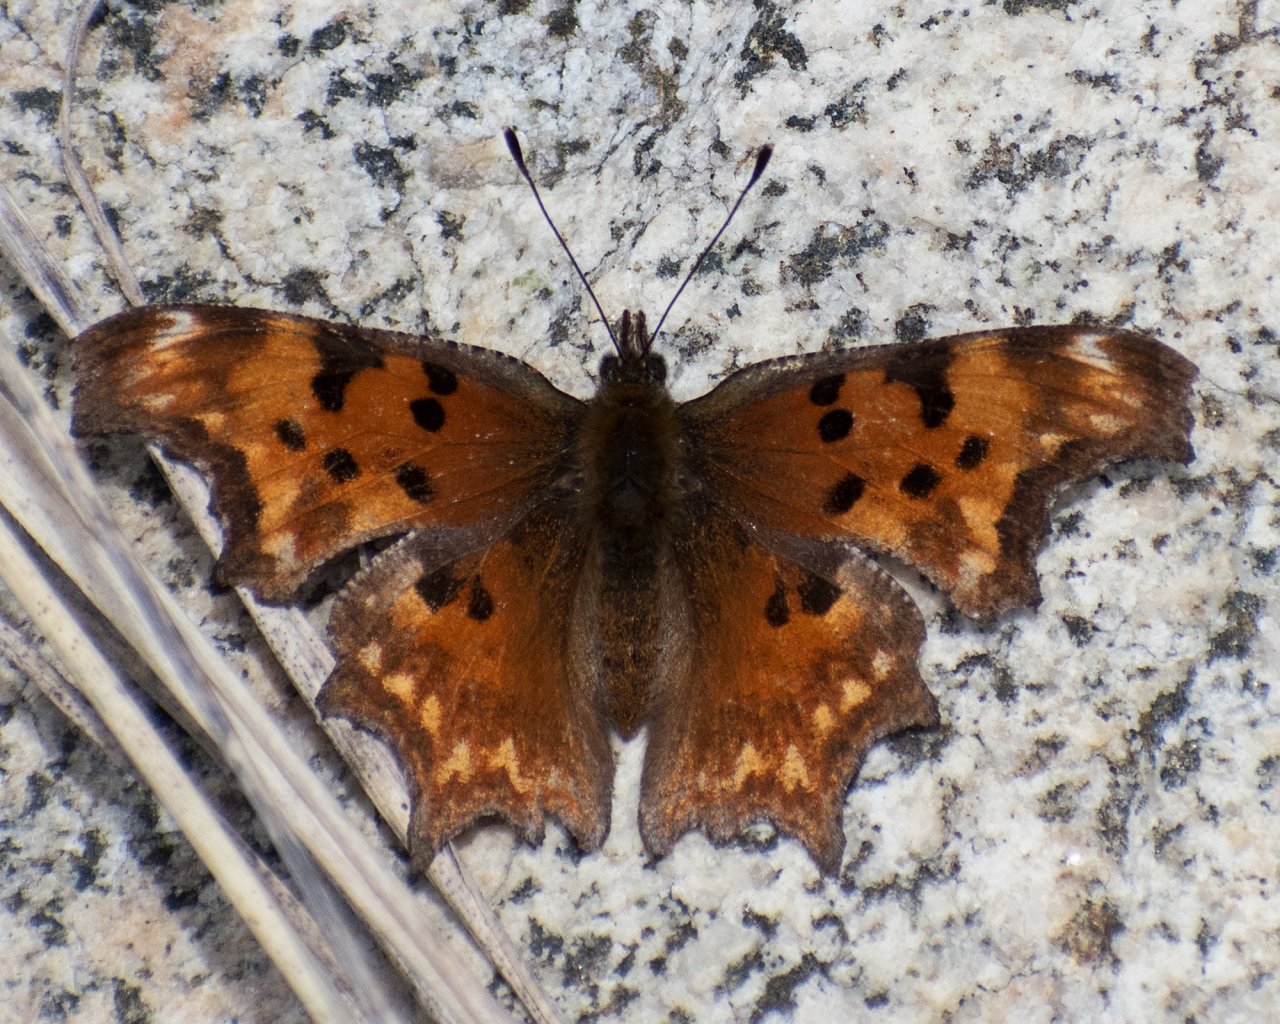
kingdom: Animalia
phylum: Arthropoda
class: Insecta
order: Lepidoptera
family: Nymphalidae
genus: Polygonia
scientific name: Polygonia gracilis
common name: Hoary Comma
